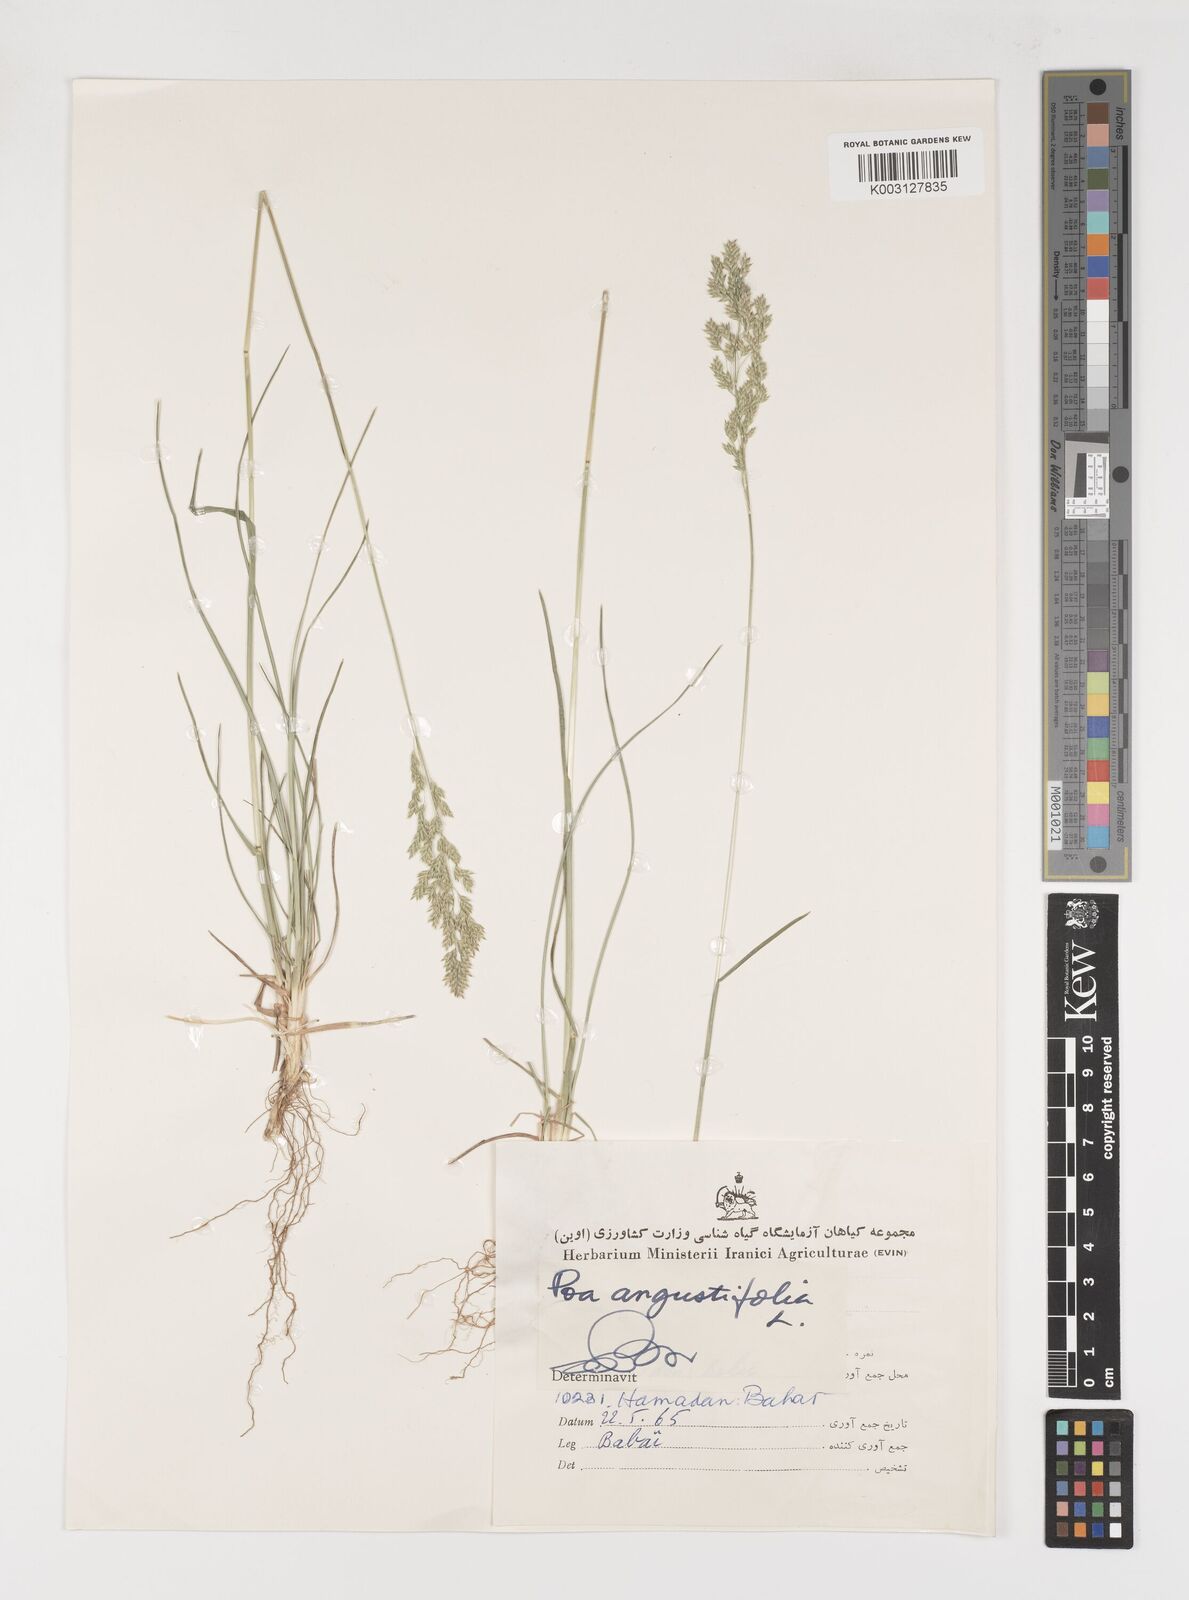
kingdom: Plantae
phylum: Tracheophyta
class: Liliopsida
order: Poales
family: Poaceae
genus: Poa
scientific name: Poa angustifolia
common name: Narrow-leaved meadow-grass
